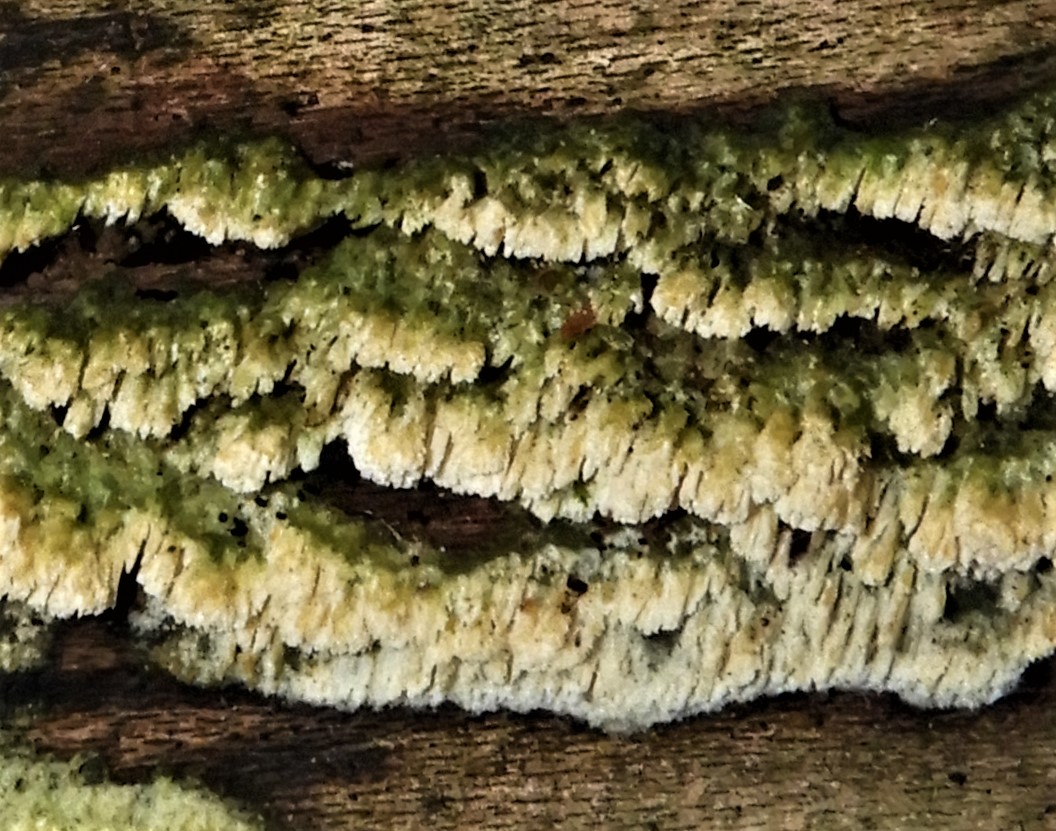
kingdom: Fungi
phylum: Basidiomycota
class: Agaricomycetes
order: Hymenochaetales
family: Schizoporaceae
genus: Schizopora
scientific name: Schizopora paradoxa
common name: hvid tandsvamp
